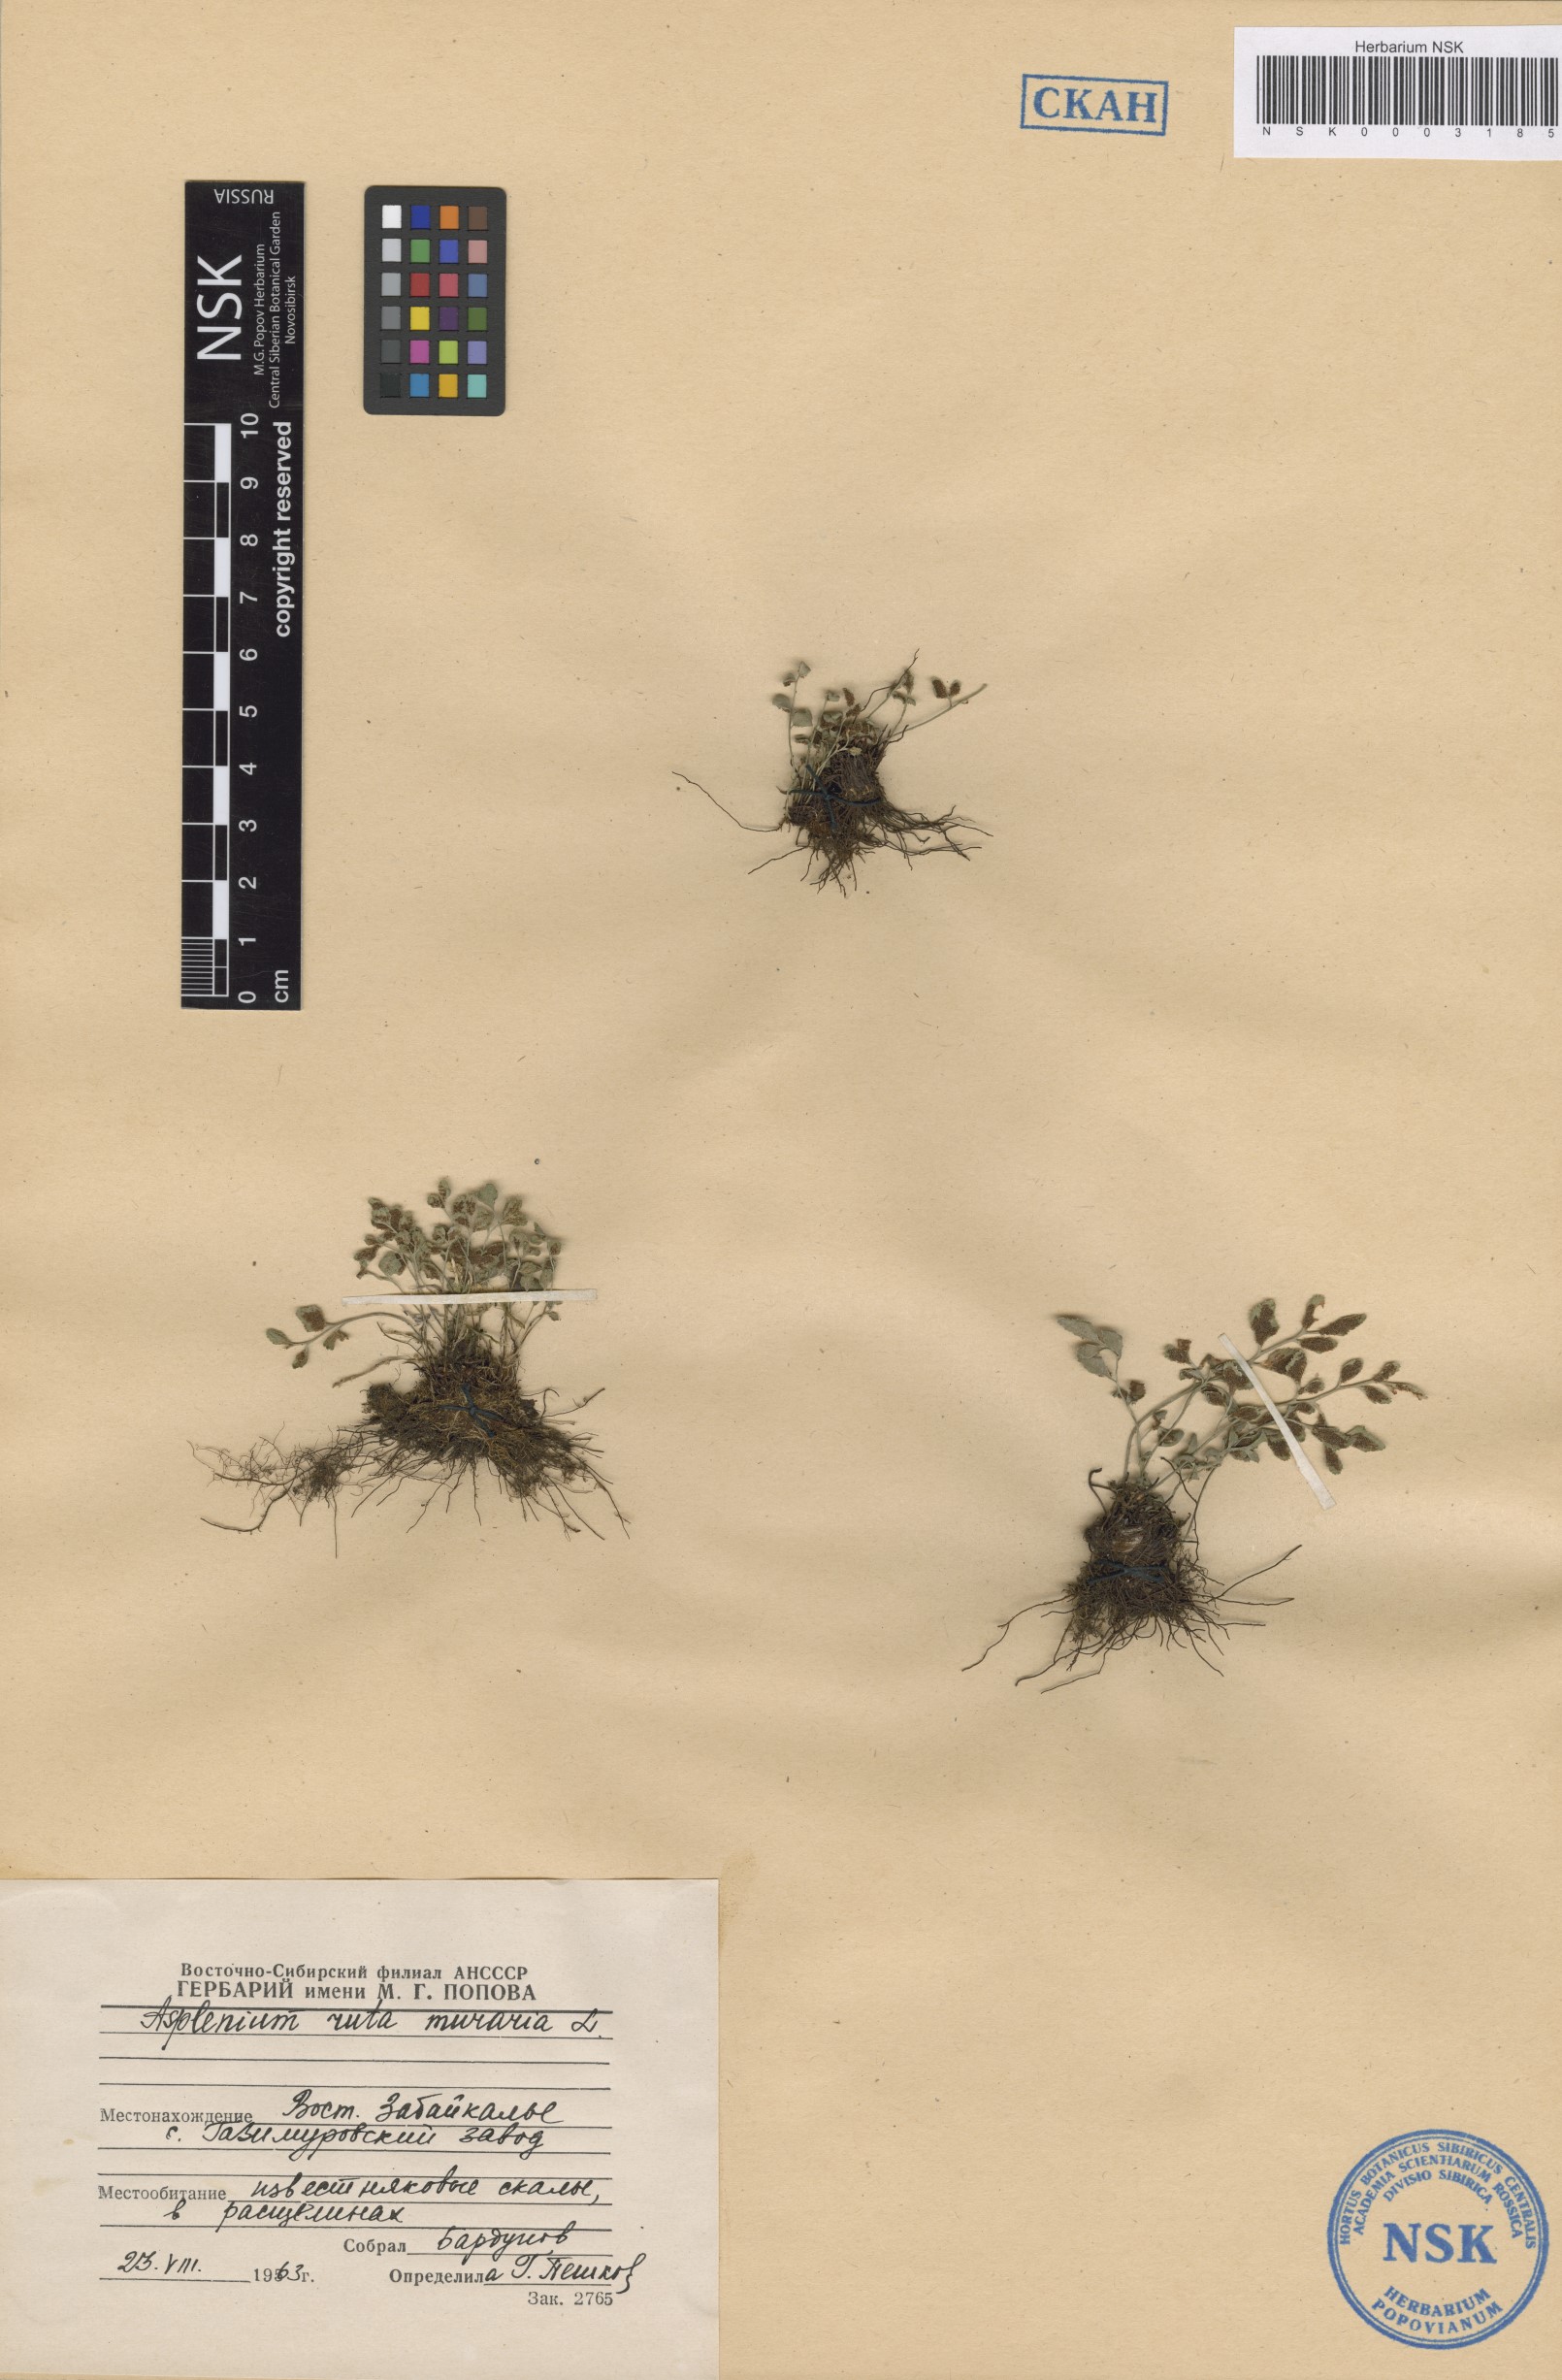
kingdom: Plantae
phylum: Tracheophyta
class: Polypodiopsida
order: Polypodiales
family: Aspleniaceae
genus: Asplenium
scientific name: Asplenium ruta-muraria
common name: Wall-rue
